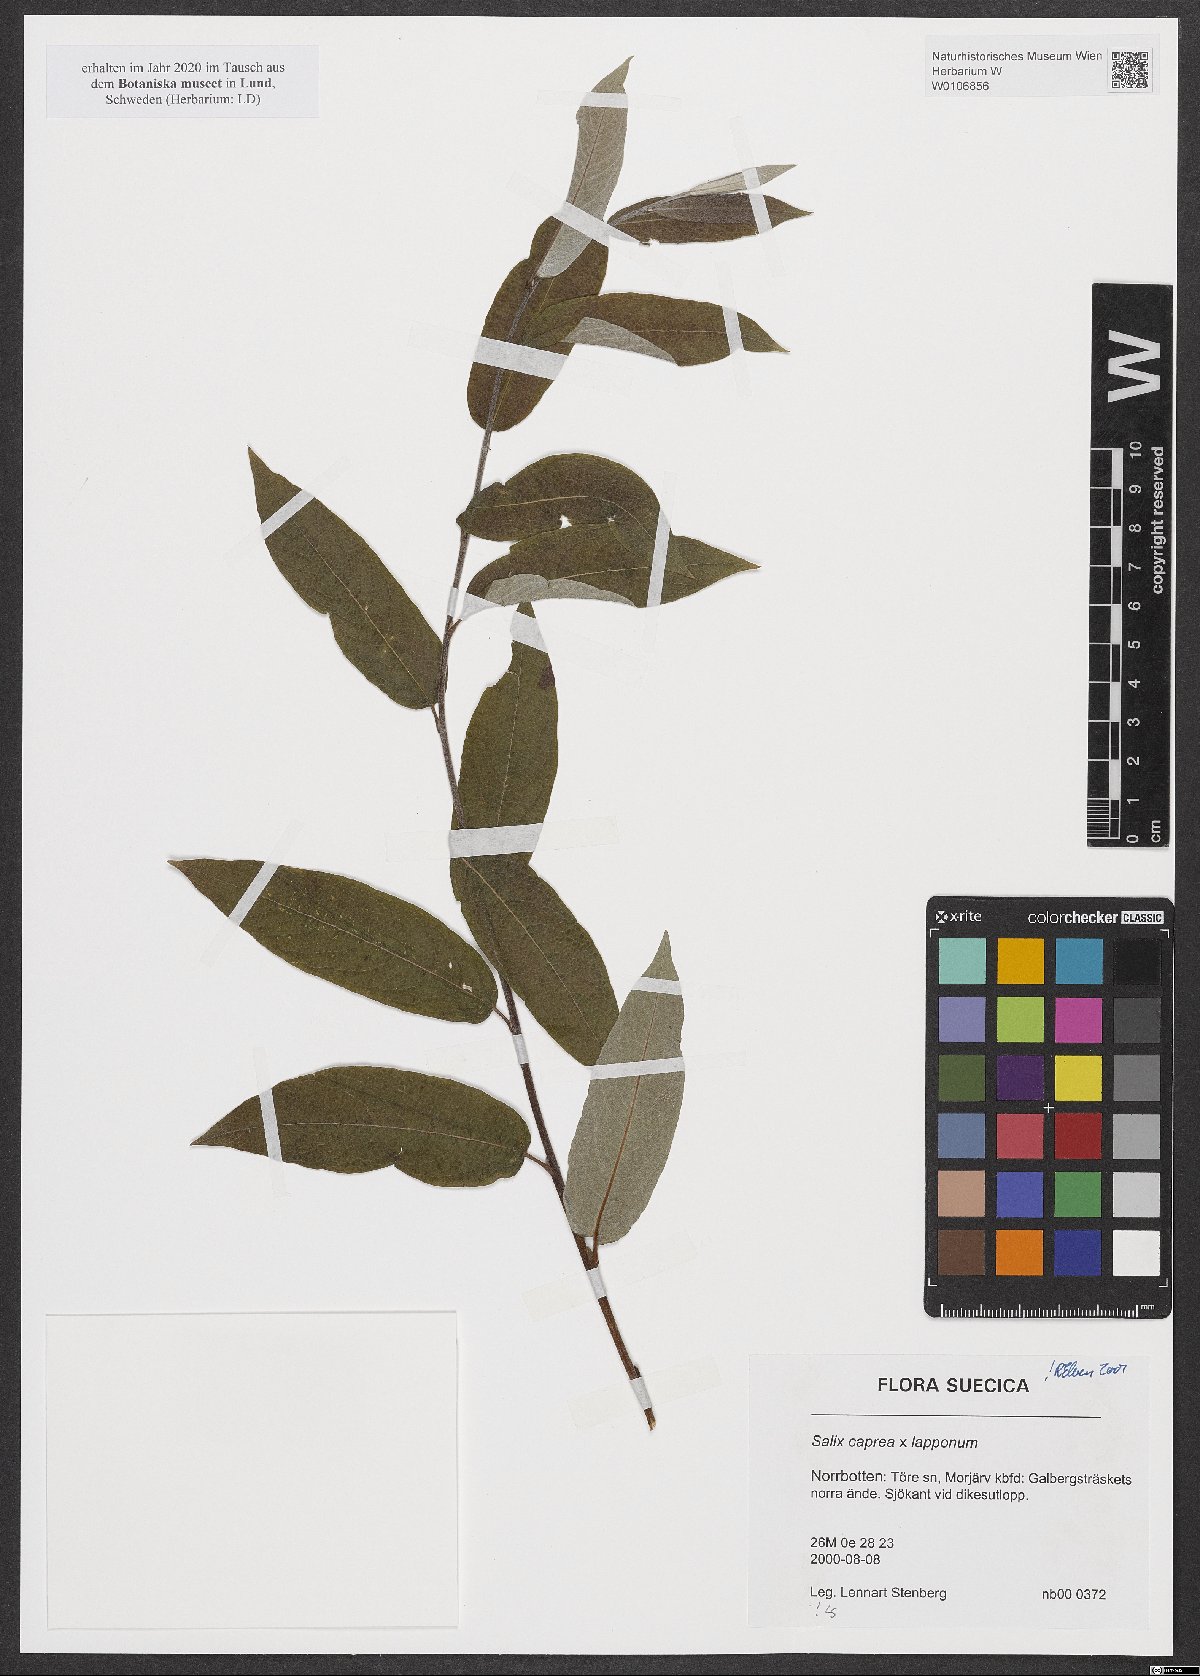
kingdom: Plantae
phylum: Tracheophyta
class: Magnoliopsida
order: Malpighiales
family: Salicaceae
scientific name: Salicaceae
